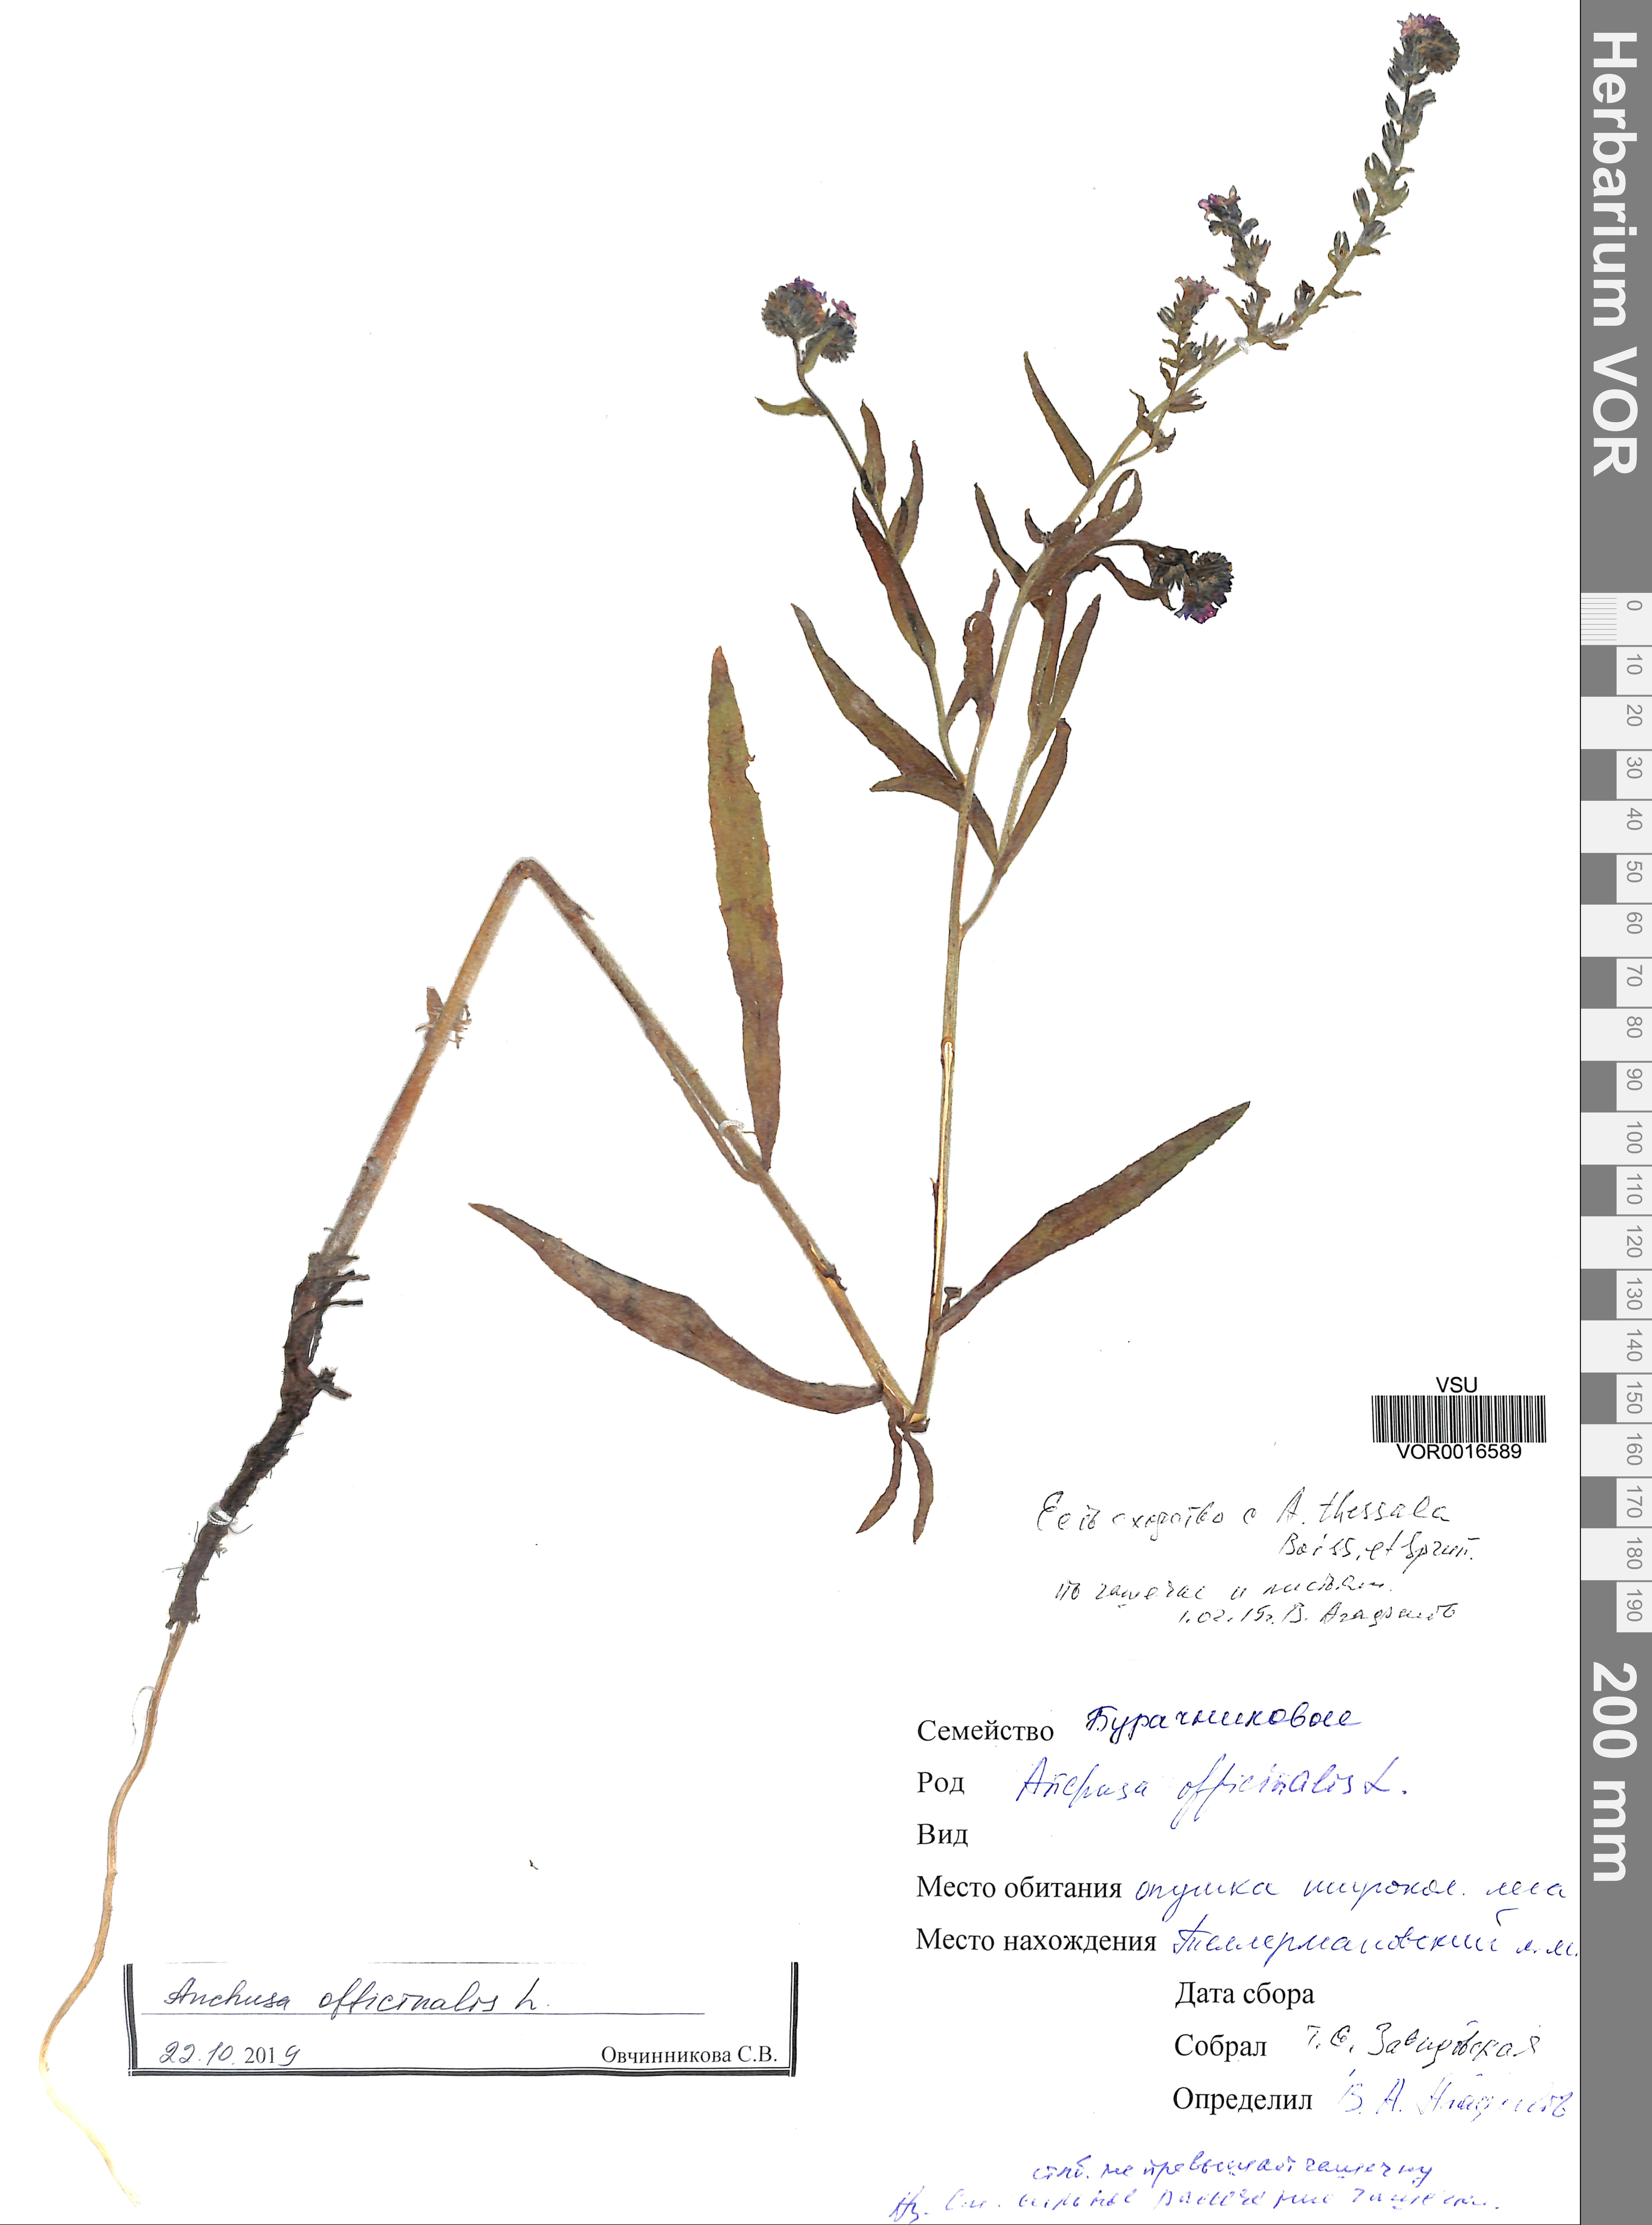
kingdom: Plantae
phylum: Tracheophyta
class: Magnoliopsida
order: Boraginales
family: Boraginaceae
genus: Anchusa
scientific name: Anchusa officinalis
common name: Alkanet
